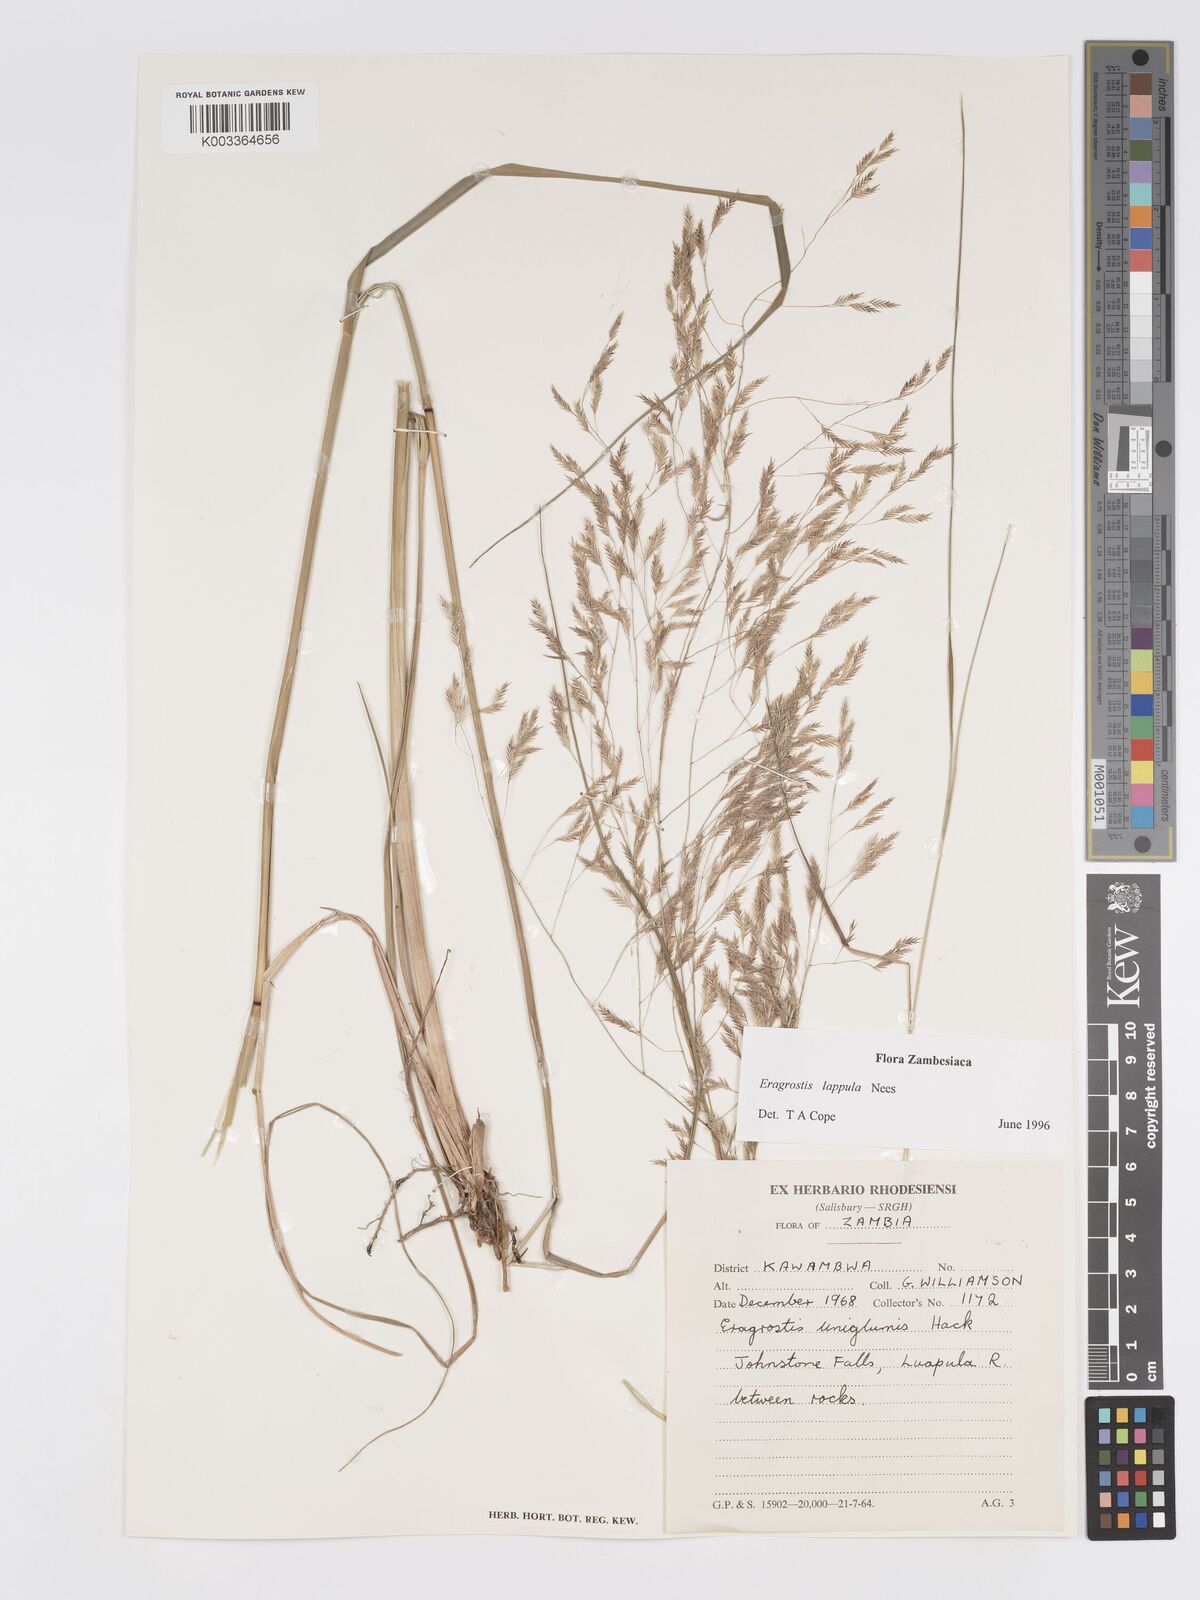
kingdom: Plantae
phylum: Tracheophyta
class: Liliopsida
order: Poales
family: Poaceae
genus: Eragrostis
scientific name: Eragrostis lappula
